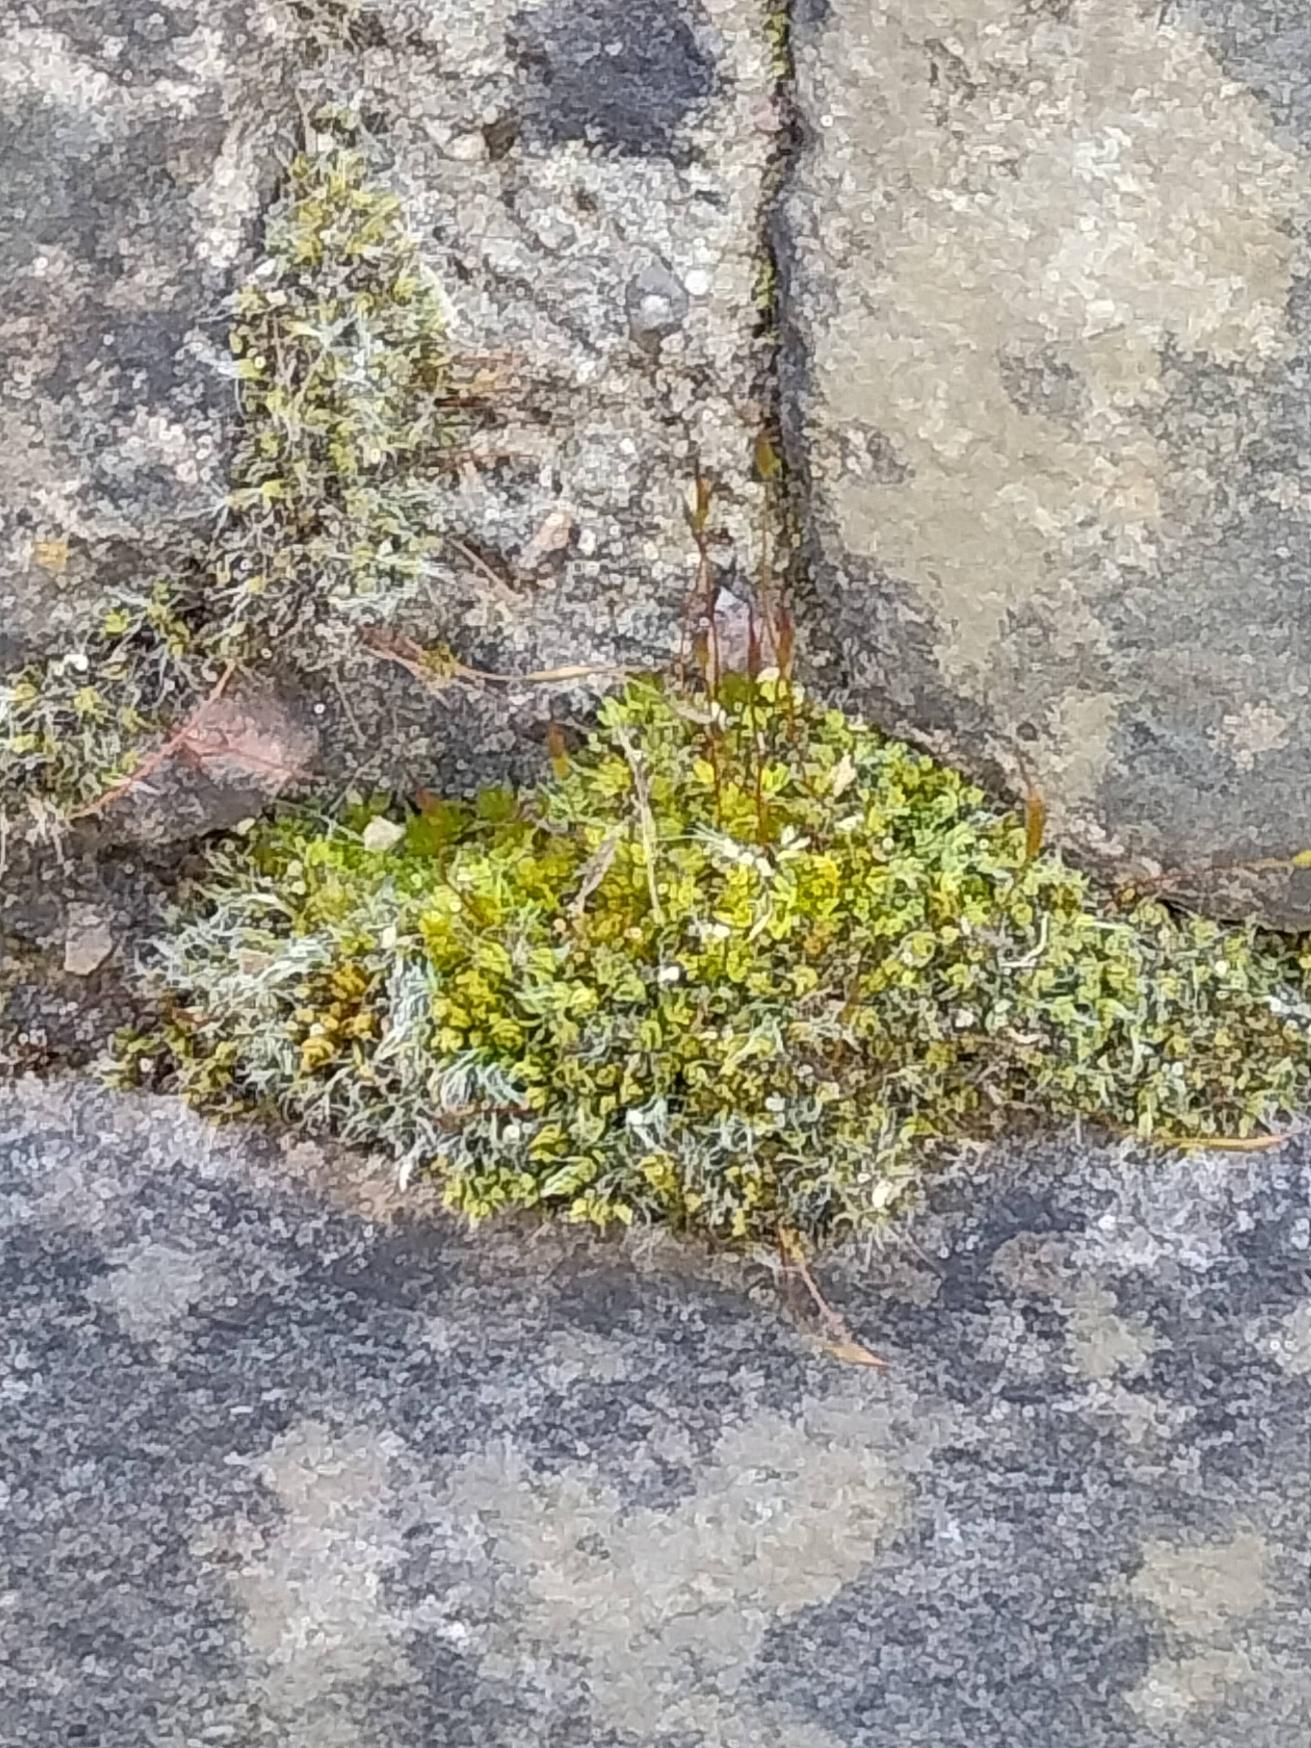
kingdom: Plantae
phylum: Bryophyta
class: Bryopsida
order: Pottiales
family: Pottiaceae
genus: Tortula
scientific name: Tortula muralis
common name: Mur-snotand
